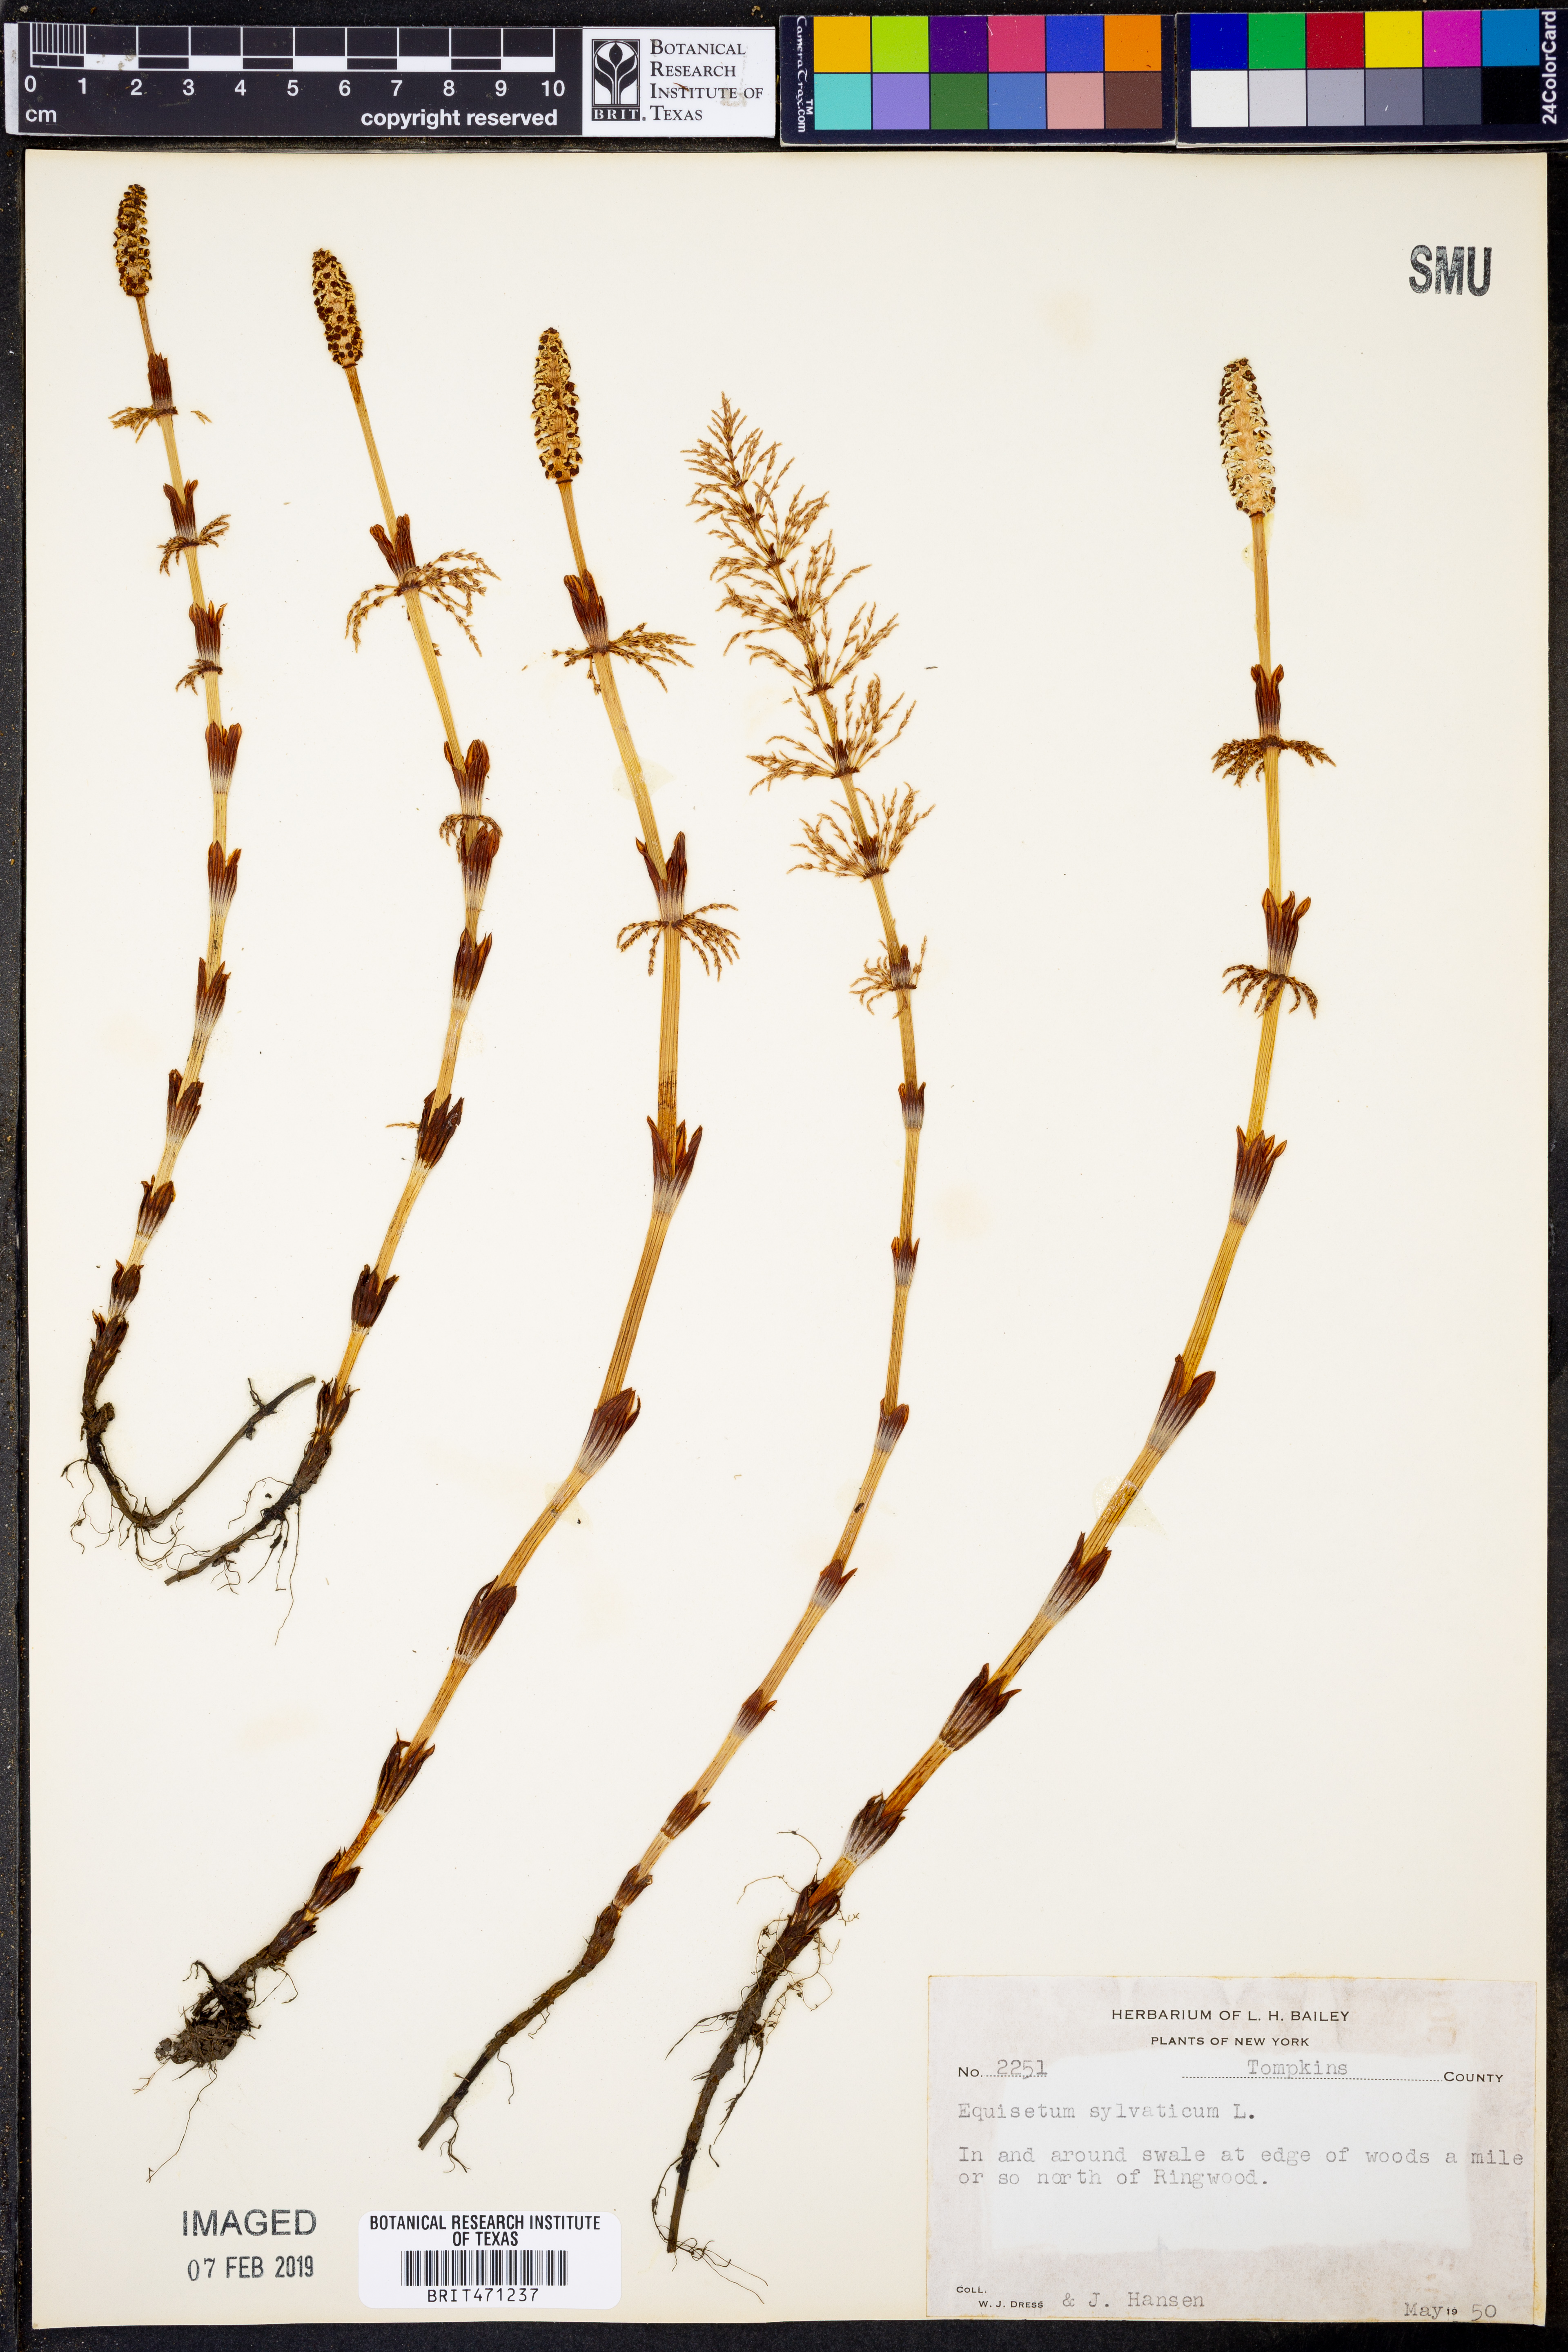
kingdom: Plantae
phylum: Tracheophyta
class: Polypodiopsida
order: Equisetales
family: Equisetaceae
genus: Equisetum
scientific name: Equisetum sylvaticum
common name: Wood horsetail
